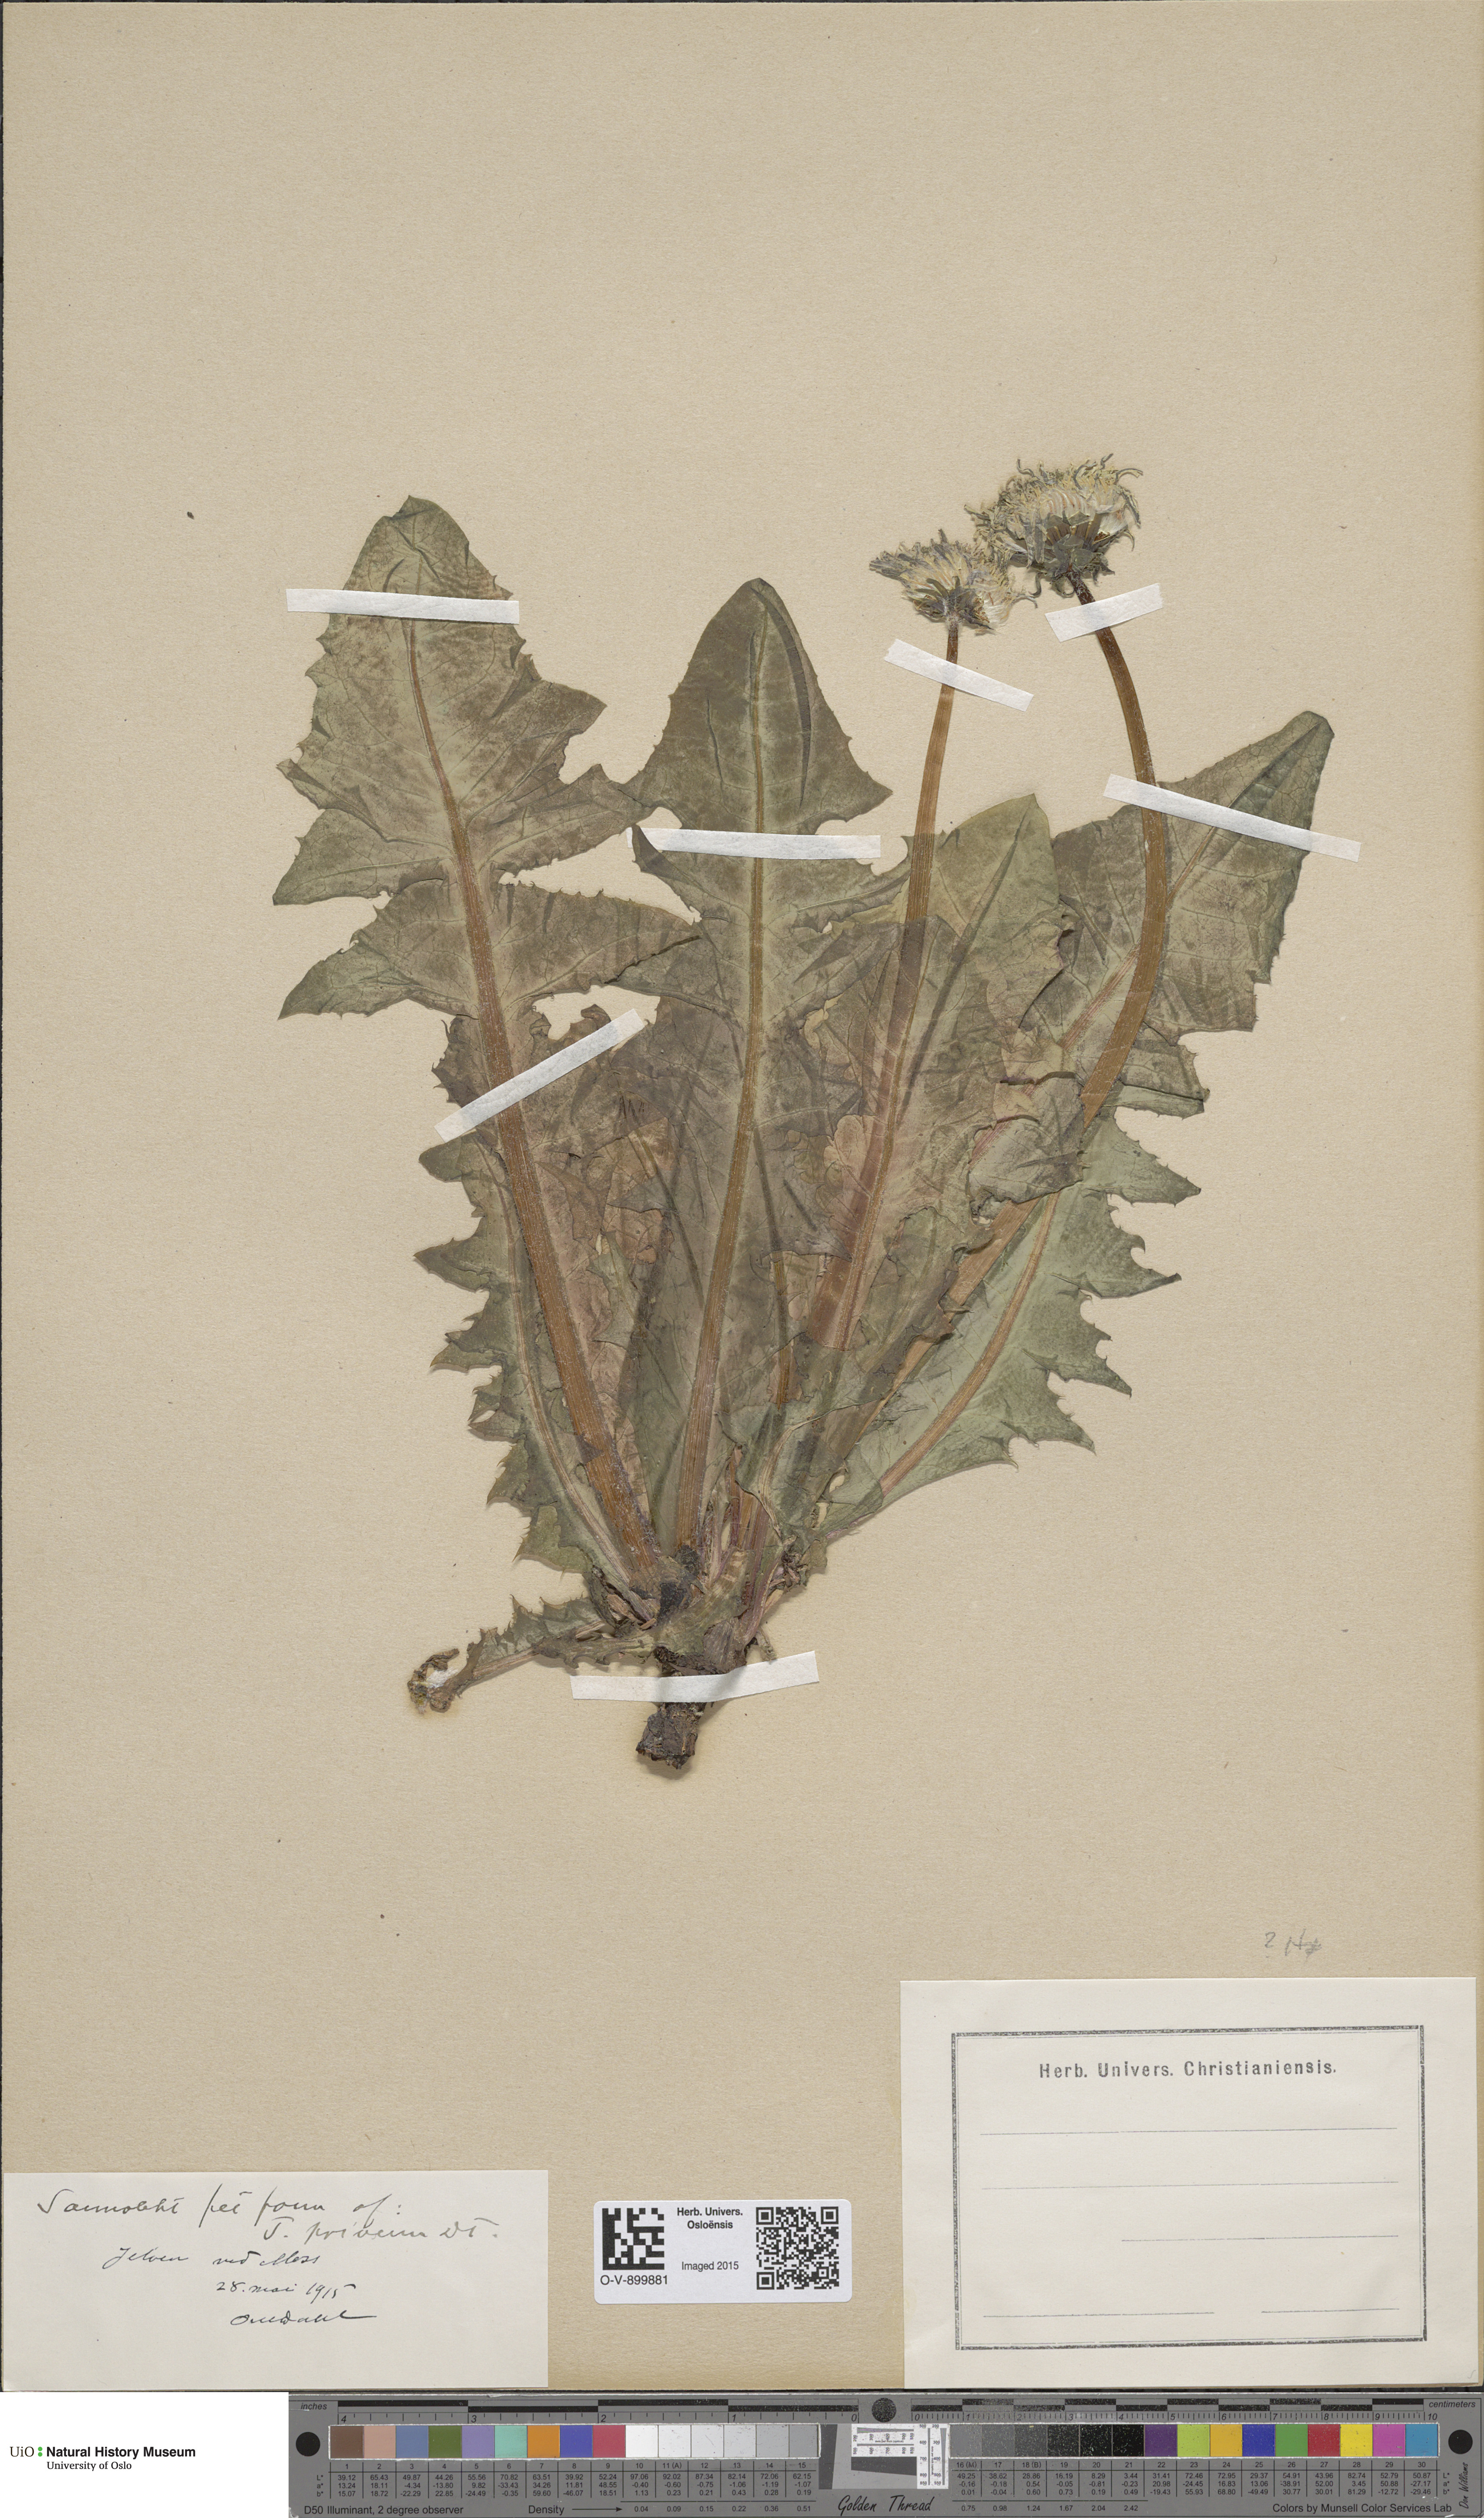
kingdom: Plantae
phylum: Tracheophyta
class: Magnoliopsida
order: Asterales
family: Asteraceae
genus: Taraxacum
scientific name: Taraxacum privum
